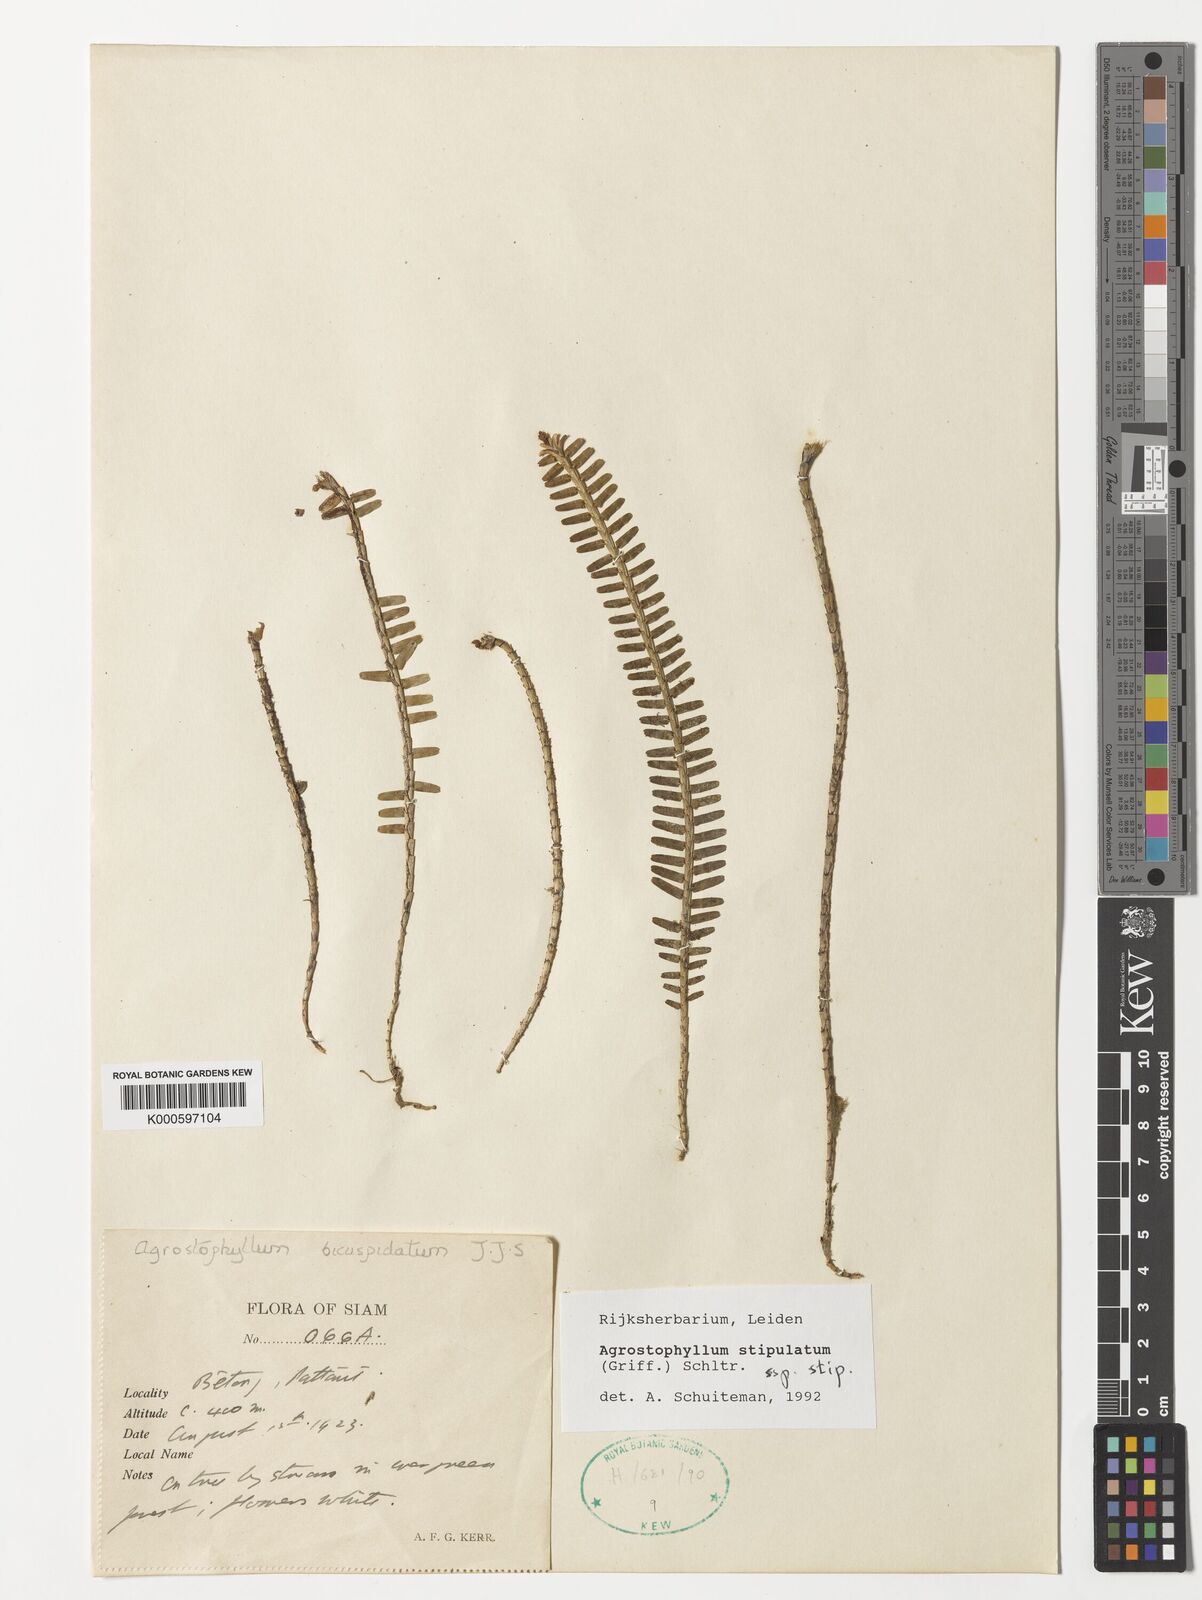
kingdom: Plantae
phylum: Tracheophyta
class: Liliopsida
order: Asparagales
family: Orchidaceae
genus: Agrostophyllum
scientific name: Agrostophyllum stipulatum
